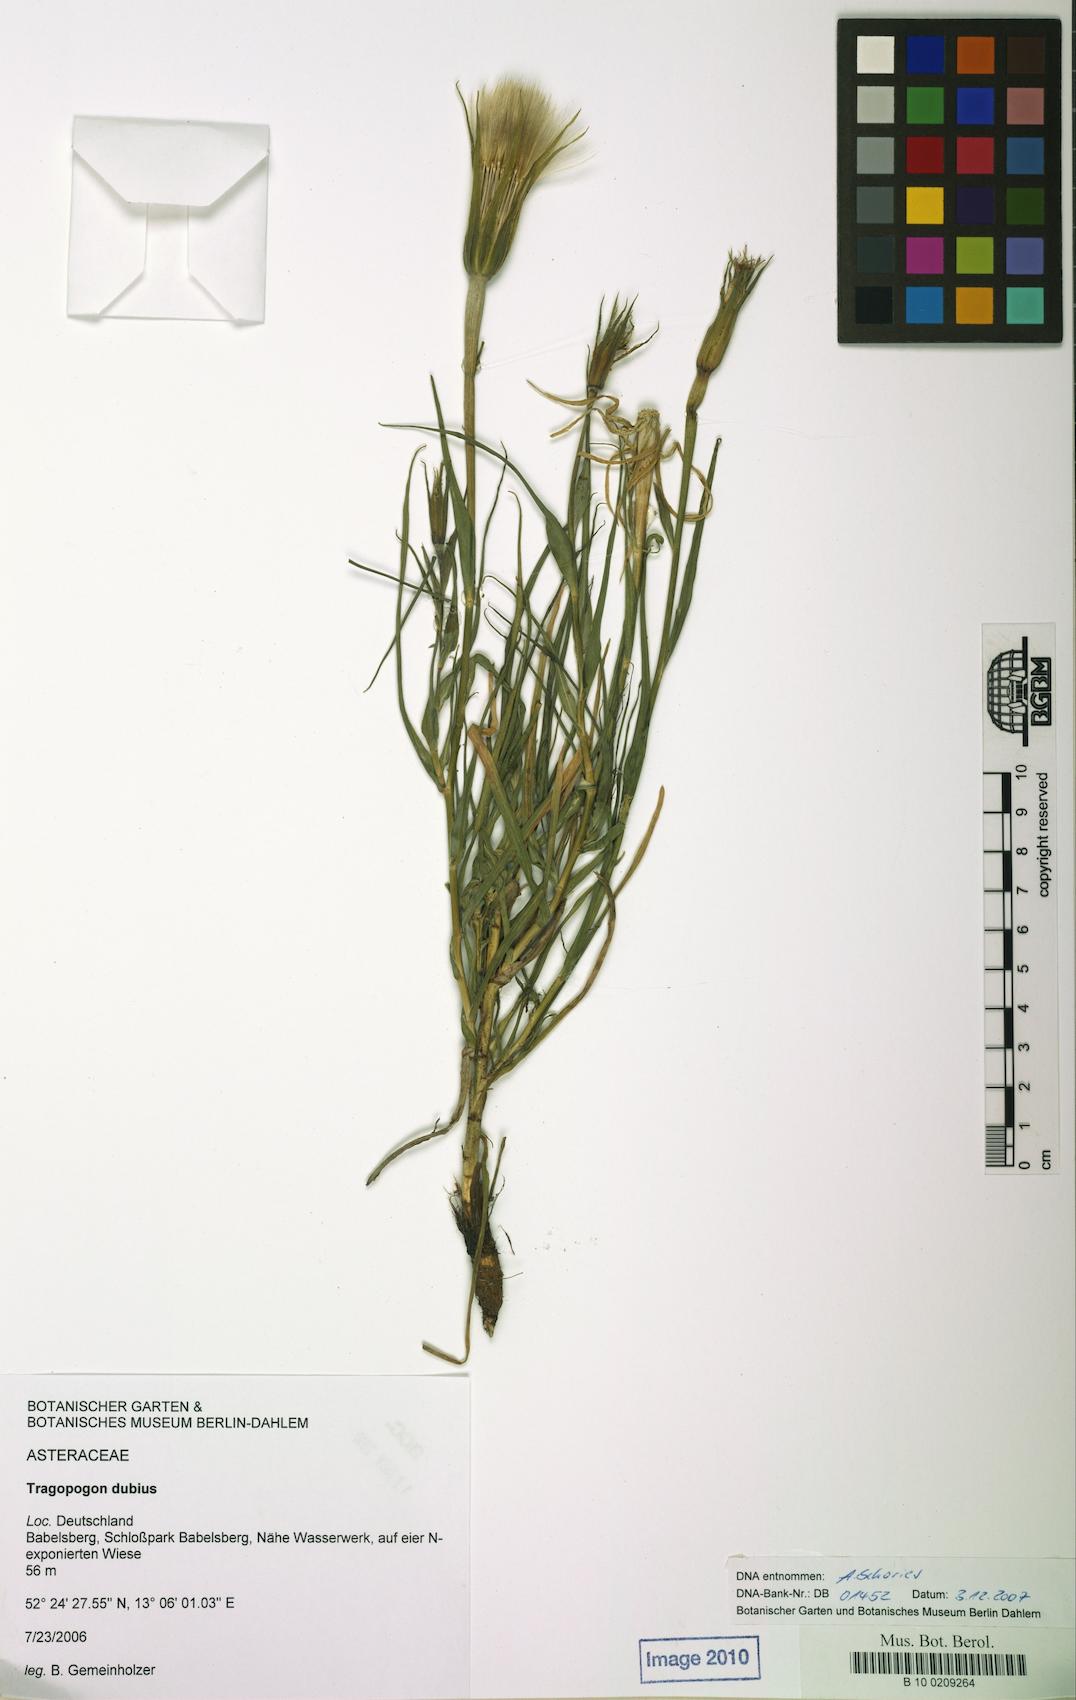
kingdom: Plantae
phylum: Tracheophyta
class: Magnoliopsida
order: Asterales
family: Asteraceae
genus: Tragopogon
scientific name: Tragopogon dubius
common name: Yellow salsify
